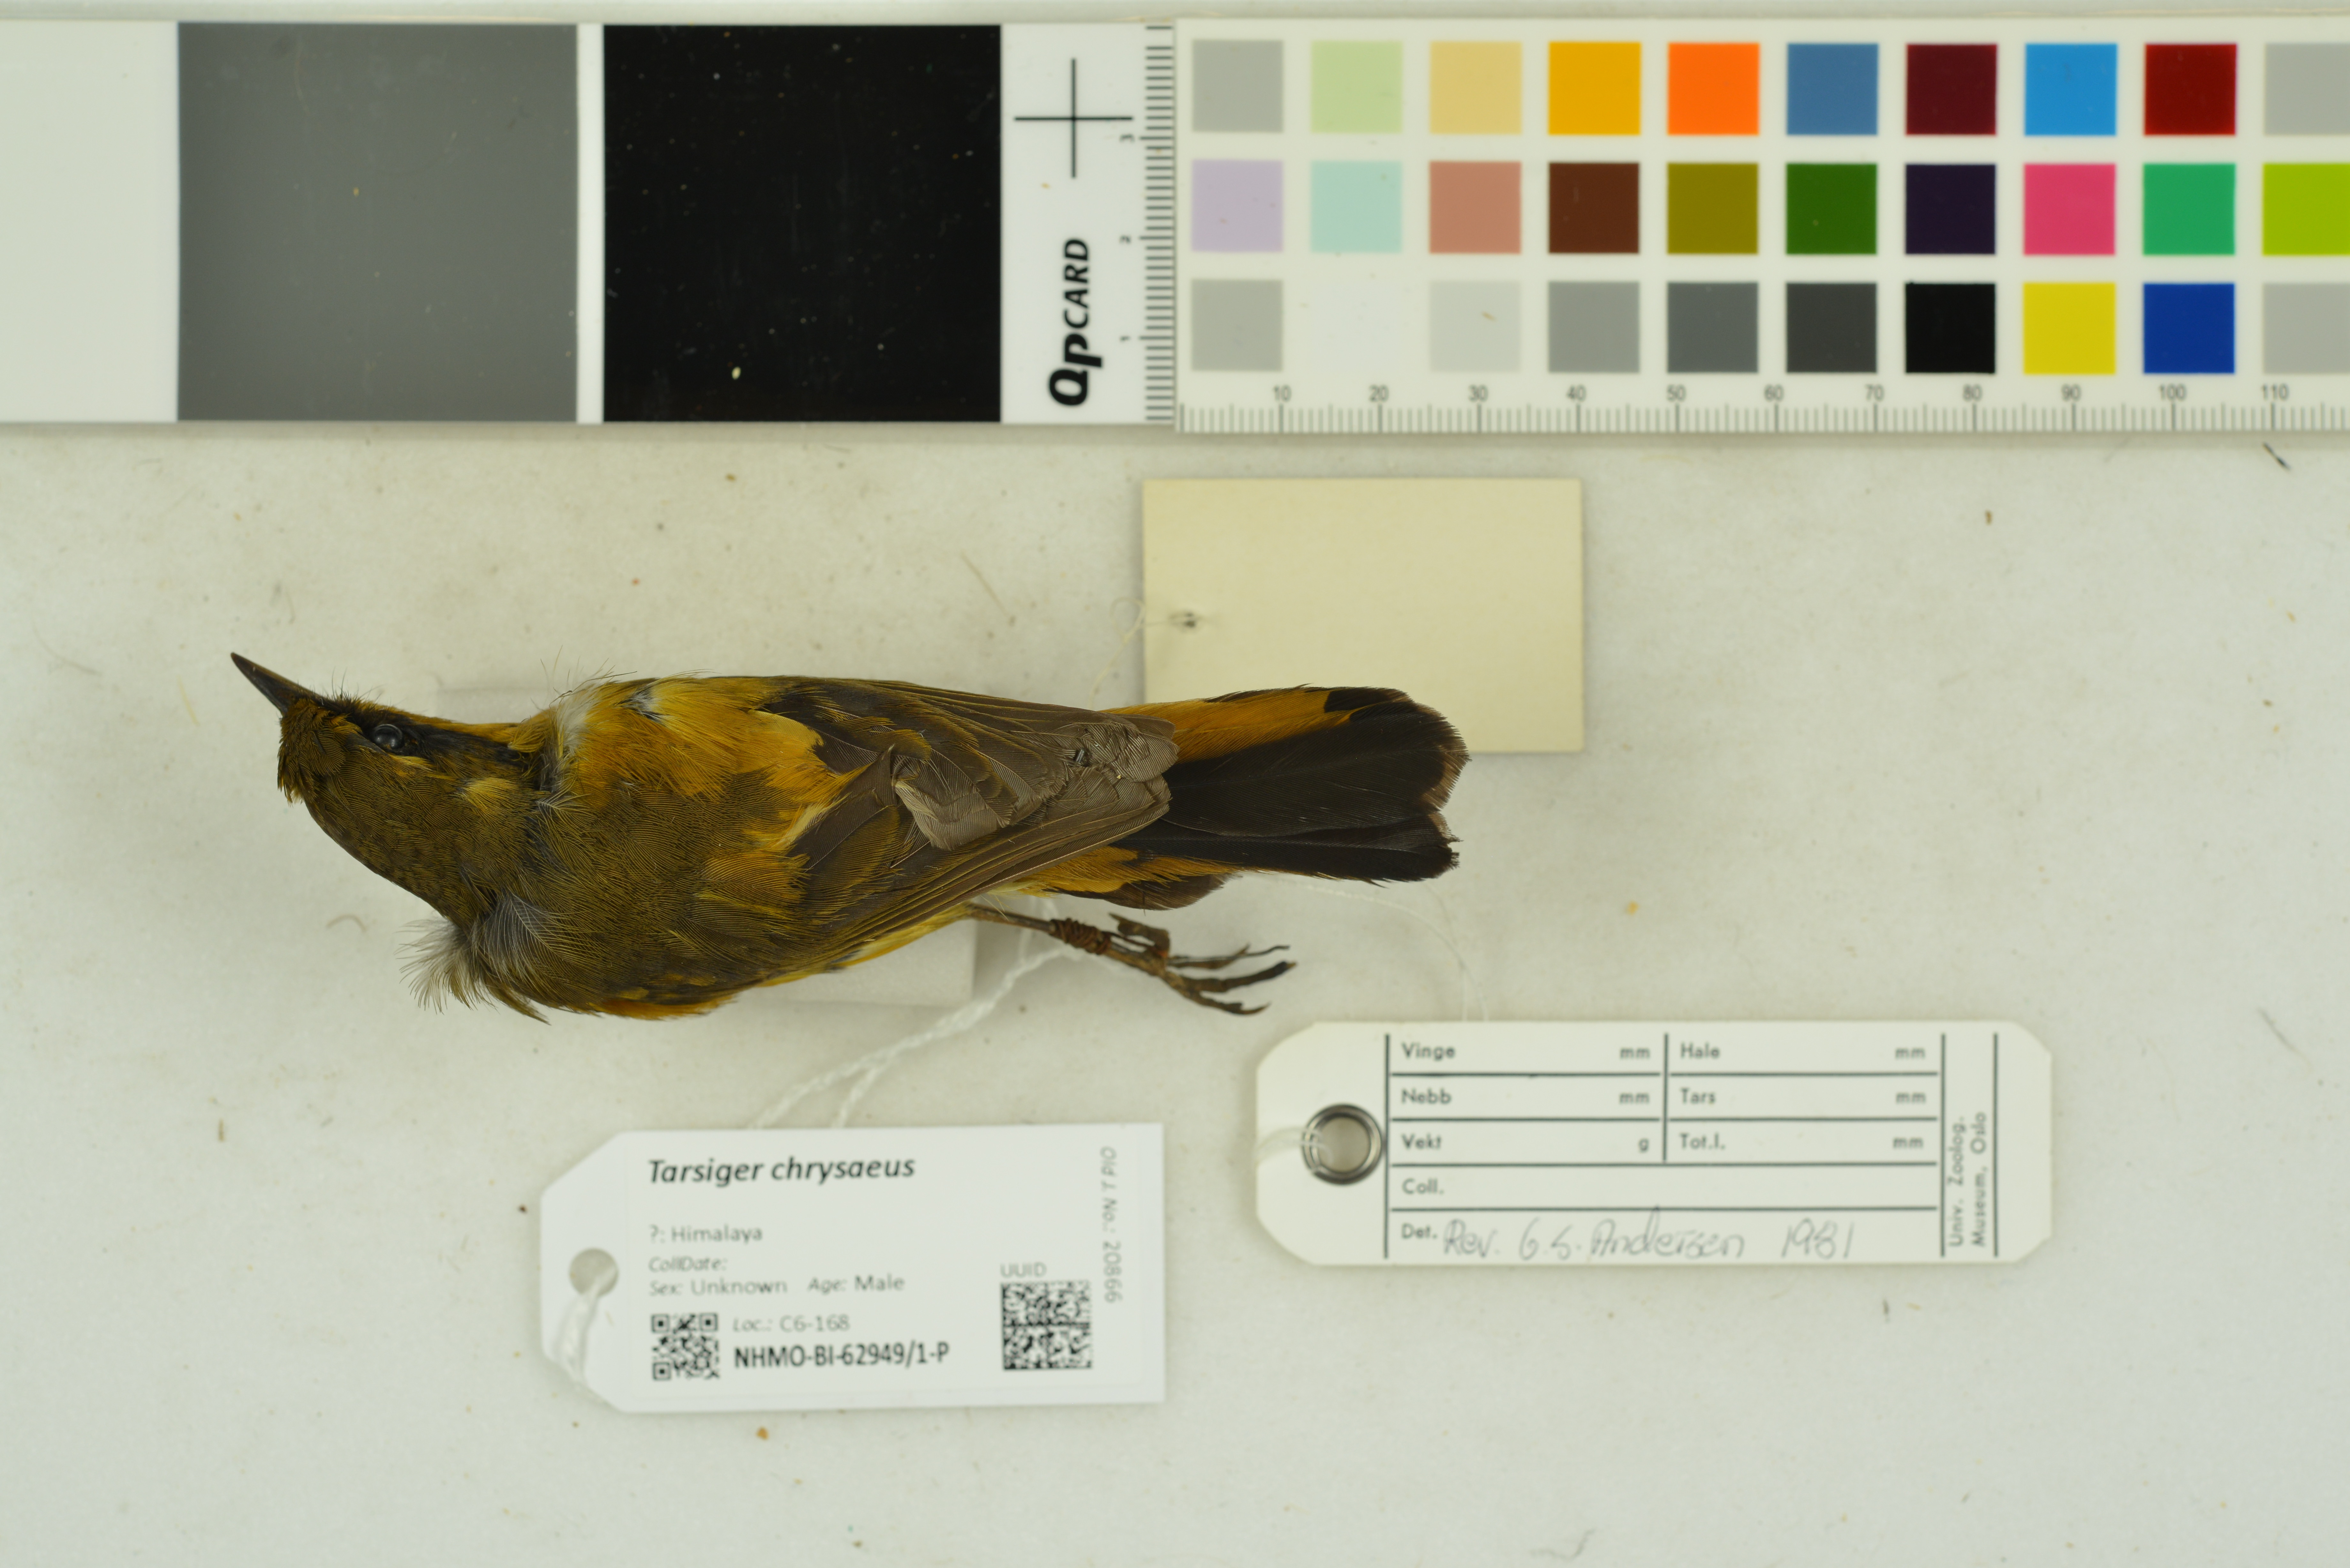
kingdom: Animalia
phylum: Chordata
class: Aves
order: Passeriformes
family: Muscicapidae
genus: Tarsiger
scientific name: Tarsiger chrysaeus
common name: Golden bush robin
